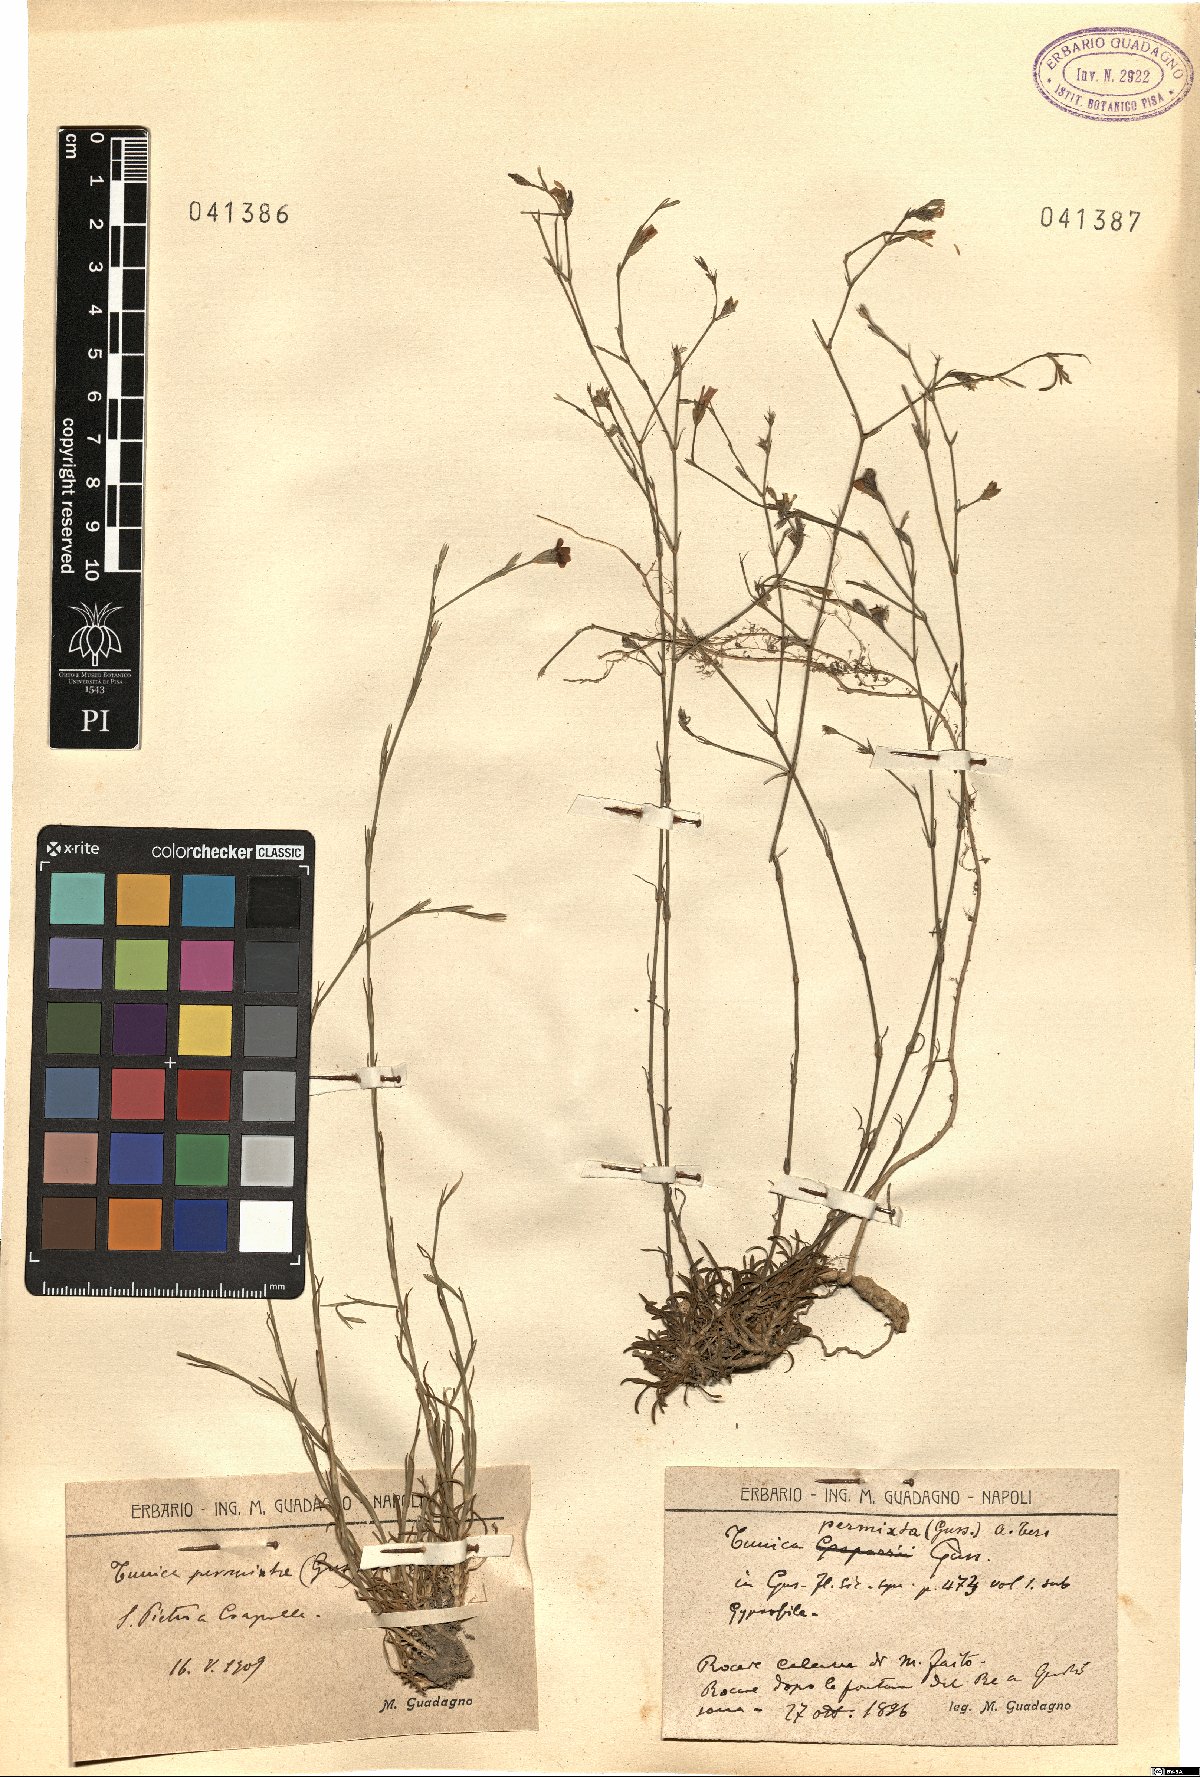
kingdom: Plantae
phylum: Tracheophyta
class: Magnoliopsida
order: Caryophyllales
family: Caryophyllaceae
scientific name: Caryophyllaceae
